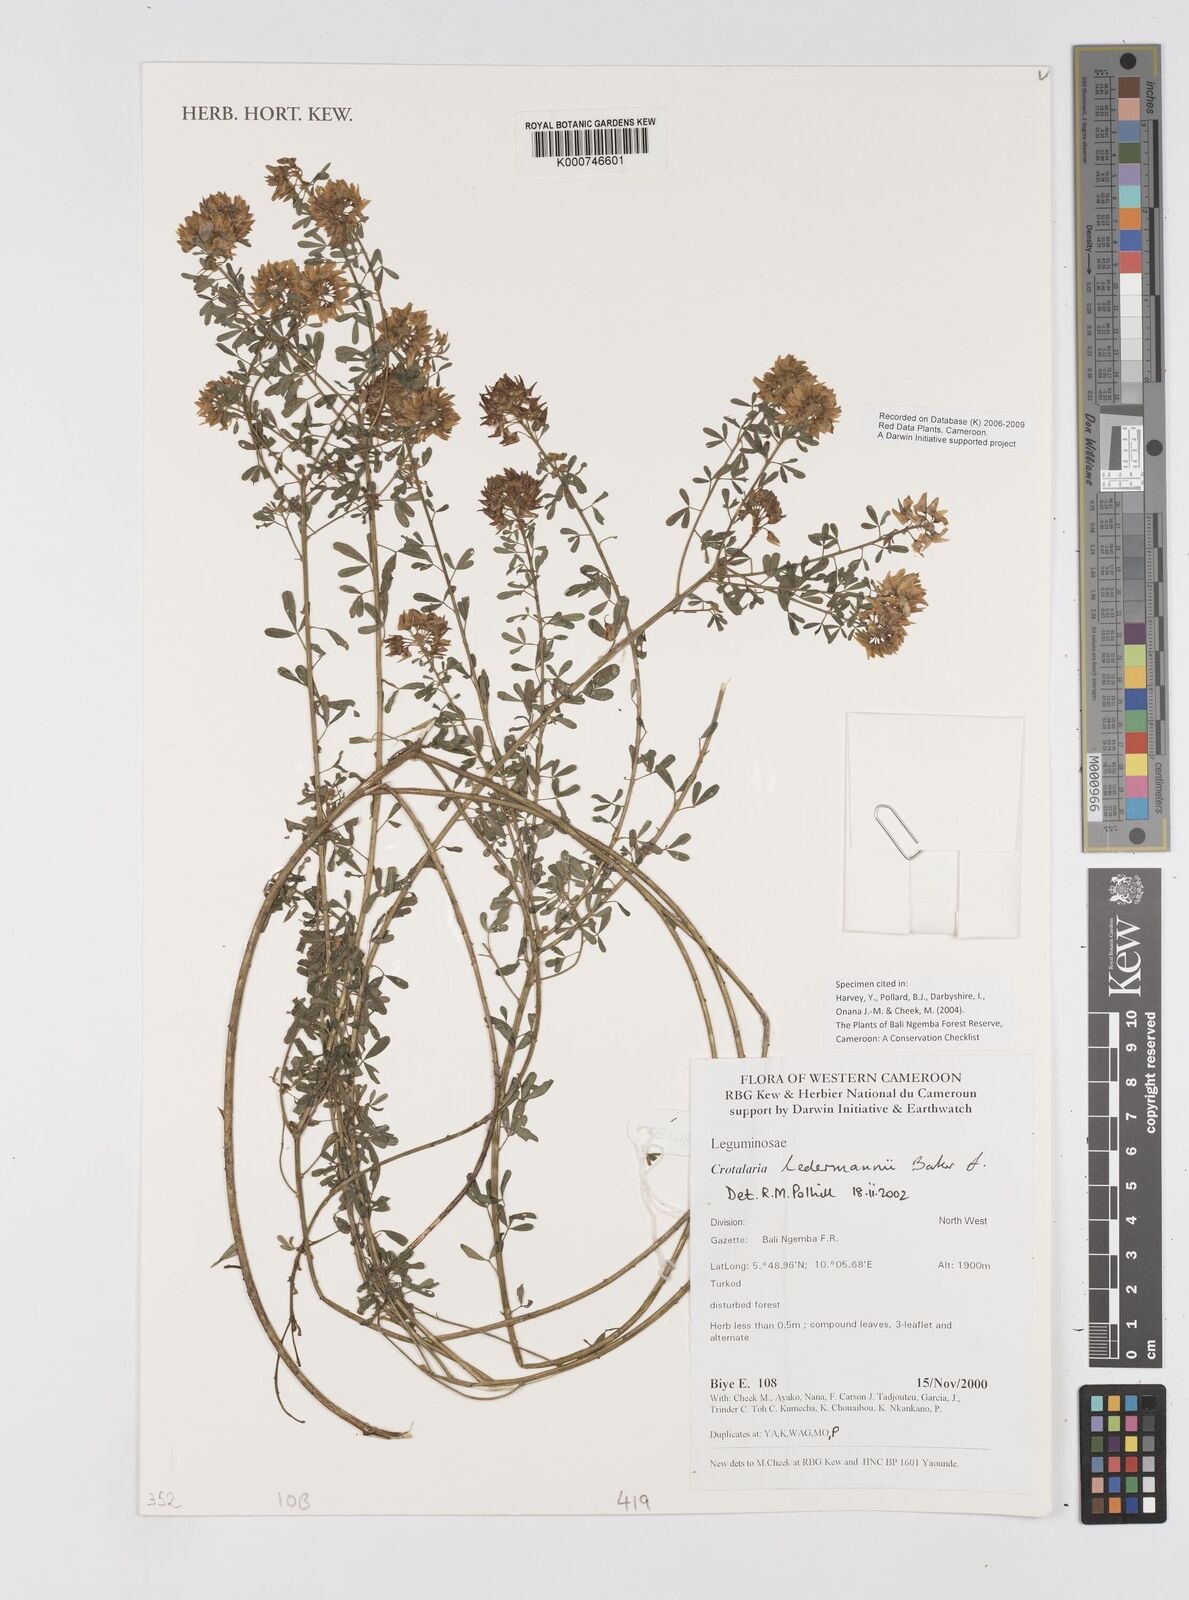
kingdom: Plantae
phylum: Tracheophyta
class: Magnoliopsida
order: Fabales
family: Fabaceae
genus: Crotalaria
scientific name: Crotalaria ledermannii
